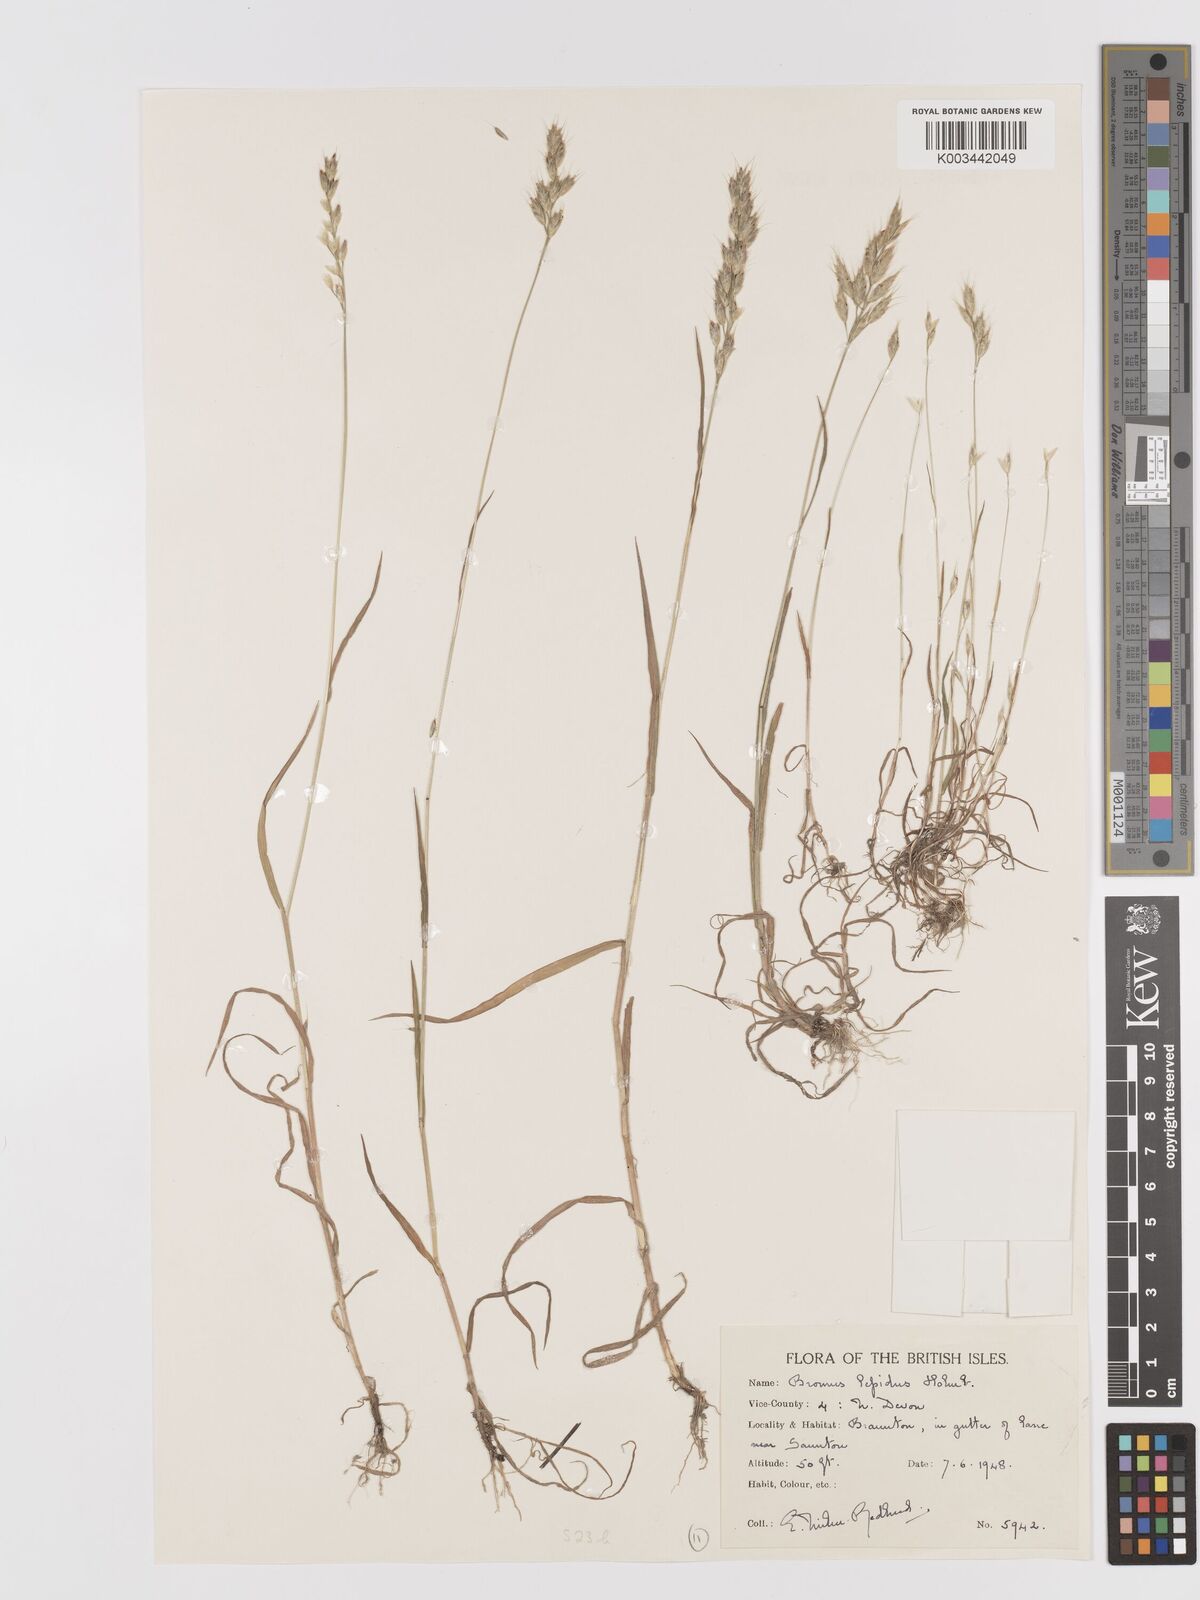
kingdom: Plantae
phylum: Tracheophyta
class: Liliopsida
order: Poales
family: Poaceae
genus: Bromus
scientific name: Bromus lepidus
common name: Slender soft-brome
